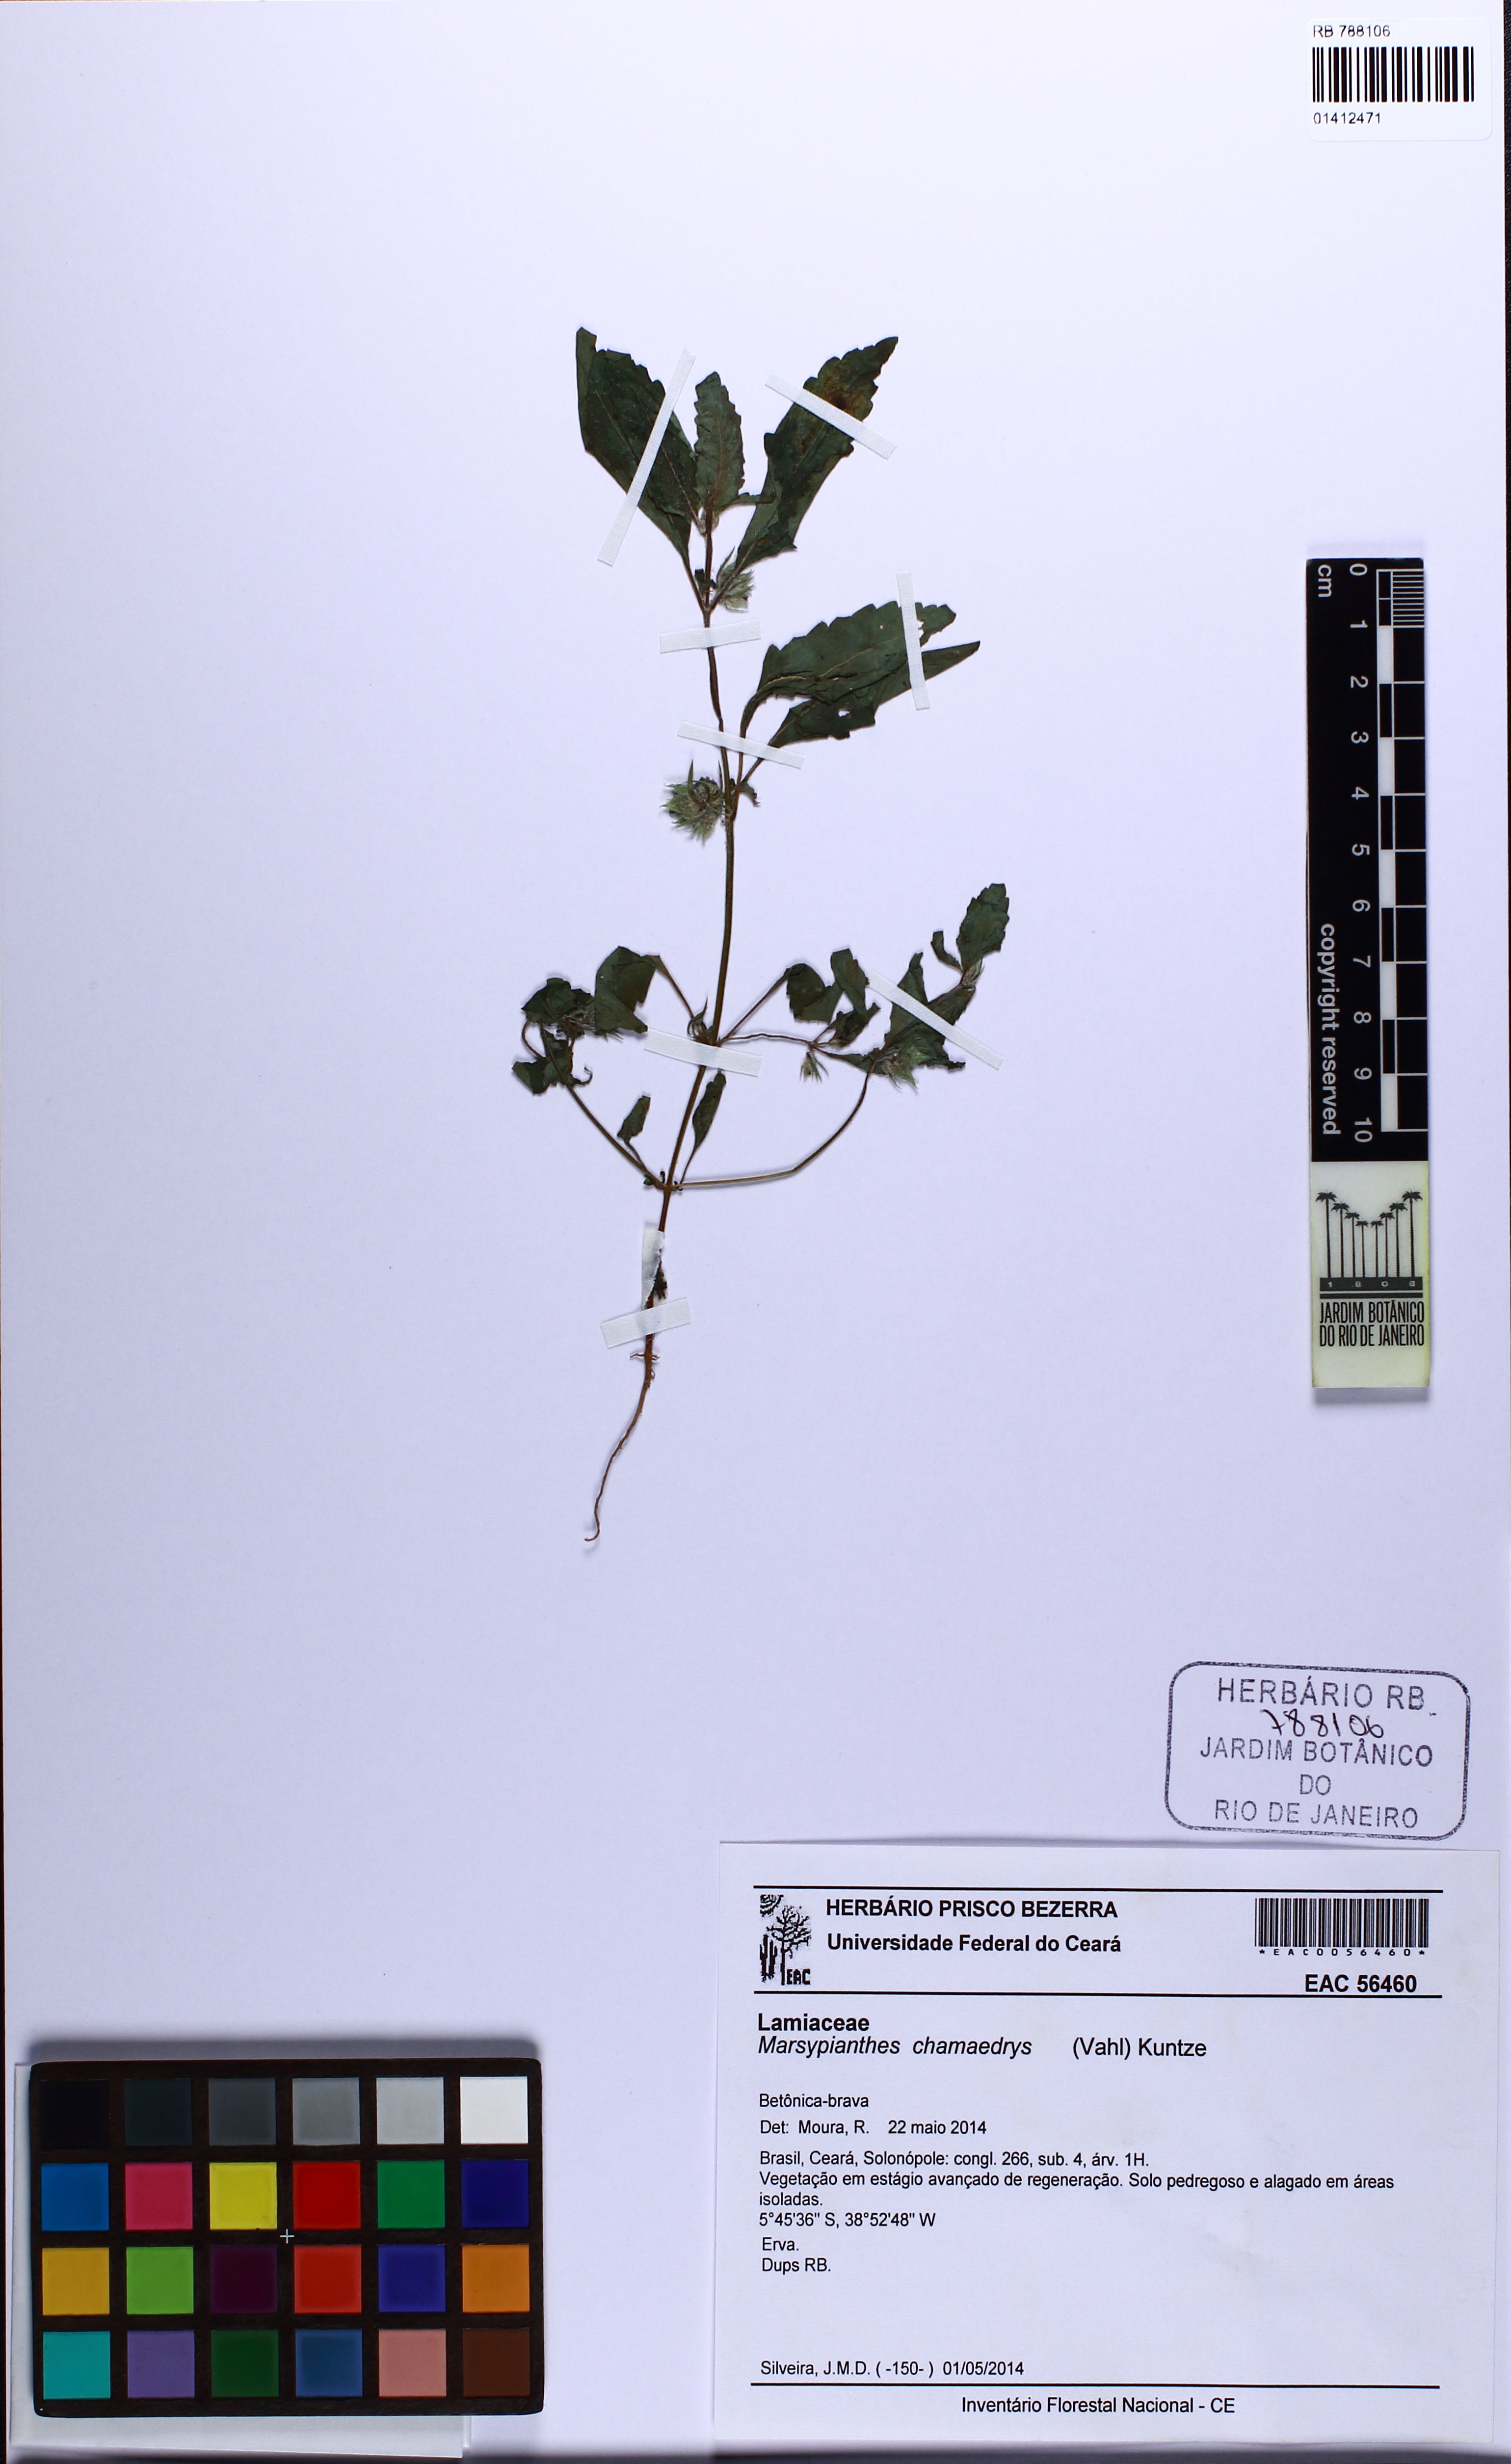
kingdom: Plantae
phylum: Tracheophyta
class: Magnoliopsida
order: Lamiales
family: Lamiaceae
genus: Marsypianthes
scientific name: Marsypianthes chamaedrys
